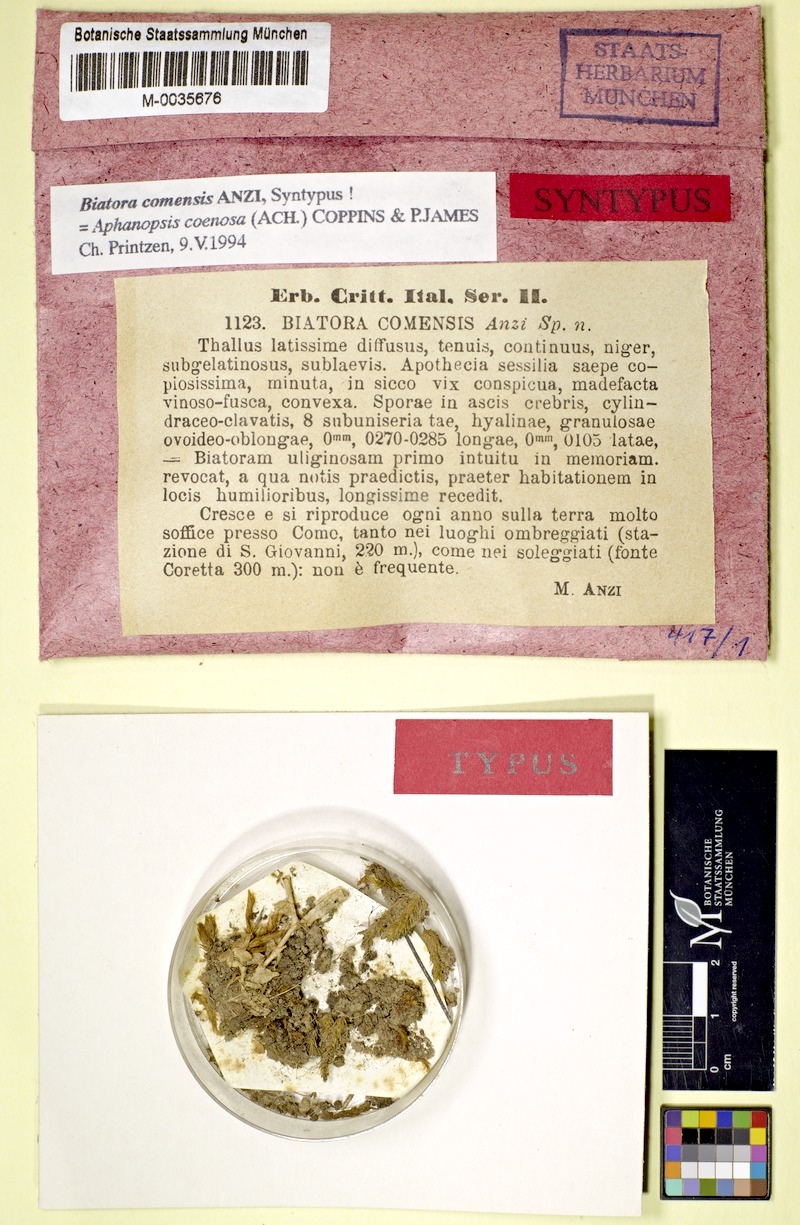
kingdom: Fungi
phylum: Ascomycota
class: Lecanoromycetes
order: Lecanorales
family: Aphanopsidaceae
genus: Aphanopsis
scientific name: Aphanopsis coenosa
